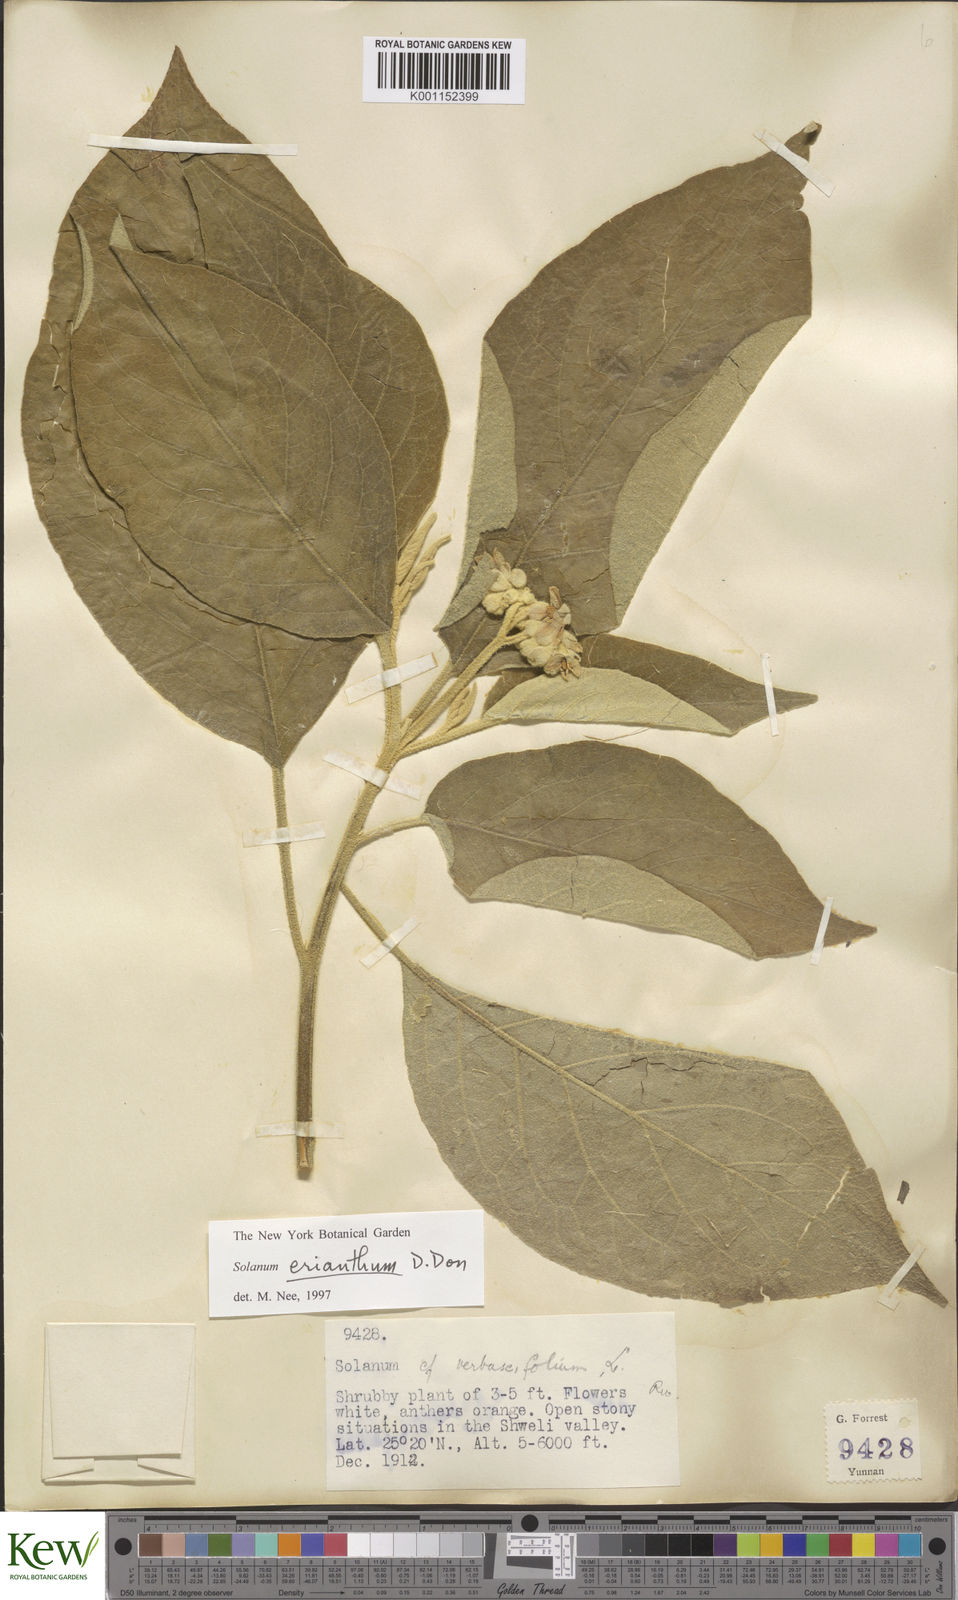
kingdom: Plantae
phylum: Tracheophyta
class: Magnoliopsida
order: Solanales
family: Solanaceae
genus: Solanum
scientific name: Solanum donianum
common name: Mullein nightshade
